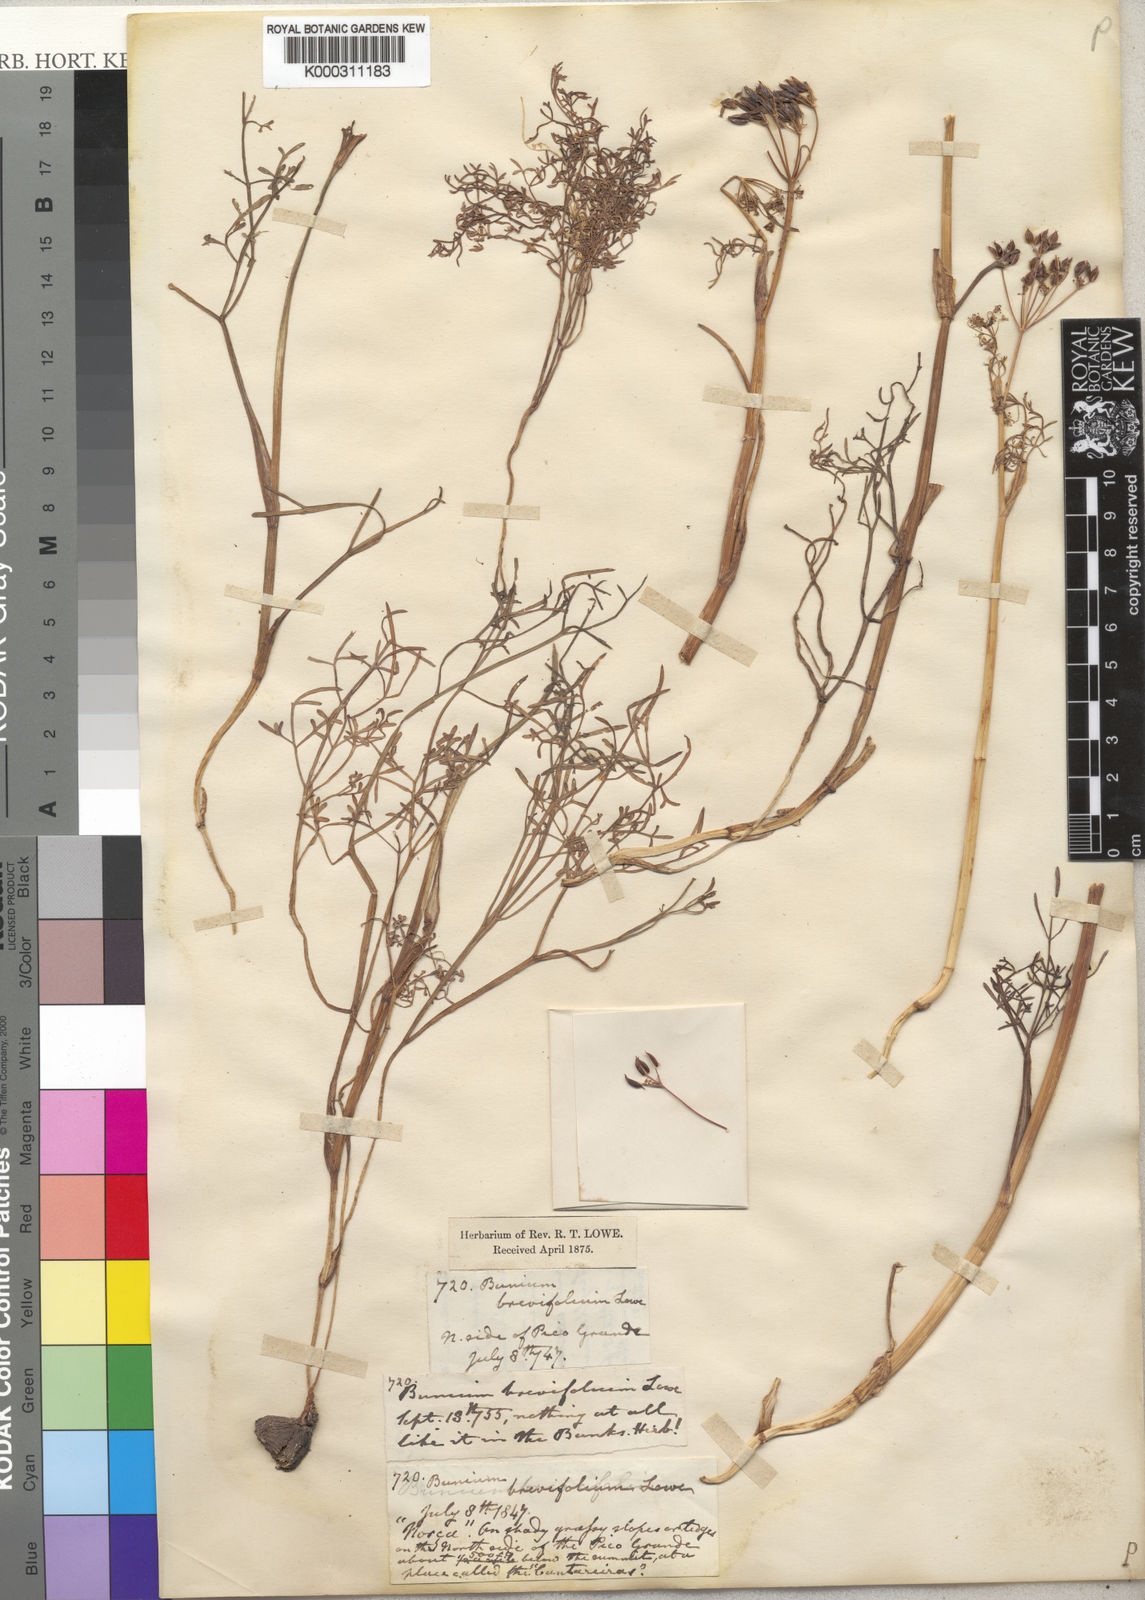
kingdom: Plantae
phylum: Tracheophyta
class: Magnoliopsida
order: Apiales
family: Apiaceae
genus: Pimpinella
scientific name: Pimpinella
